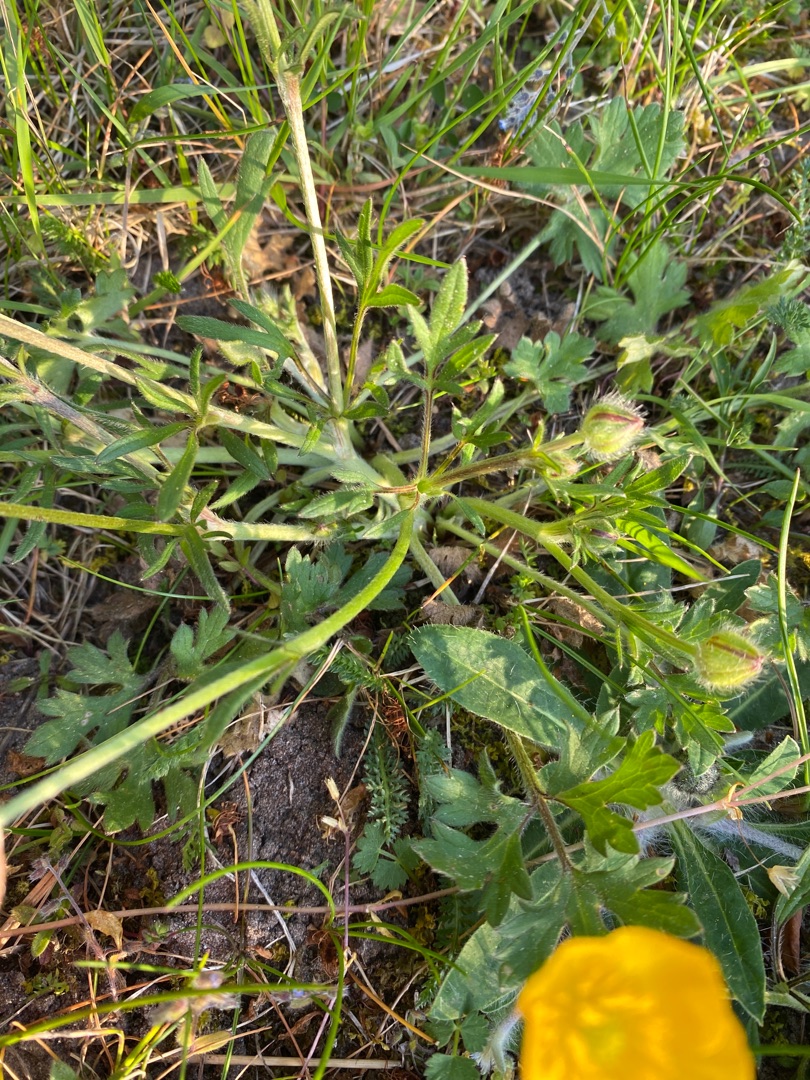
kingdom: Plantae
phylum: Tracheophyta
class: Magnoliopsida
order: Ranunculales
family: Ranunculaceae
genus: Ranunculus
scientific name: Ranunculus bulbosus
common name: Knold-ranunkel
